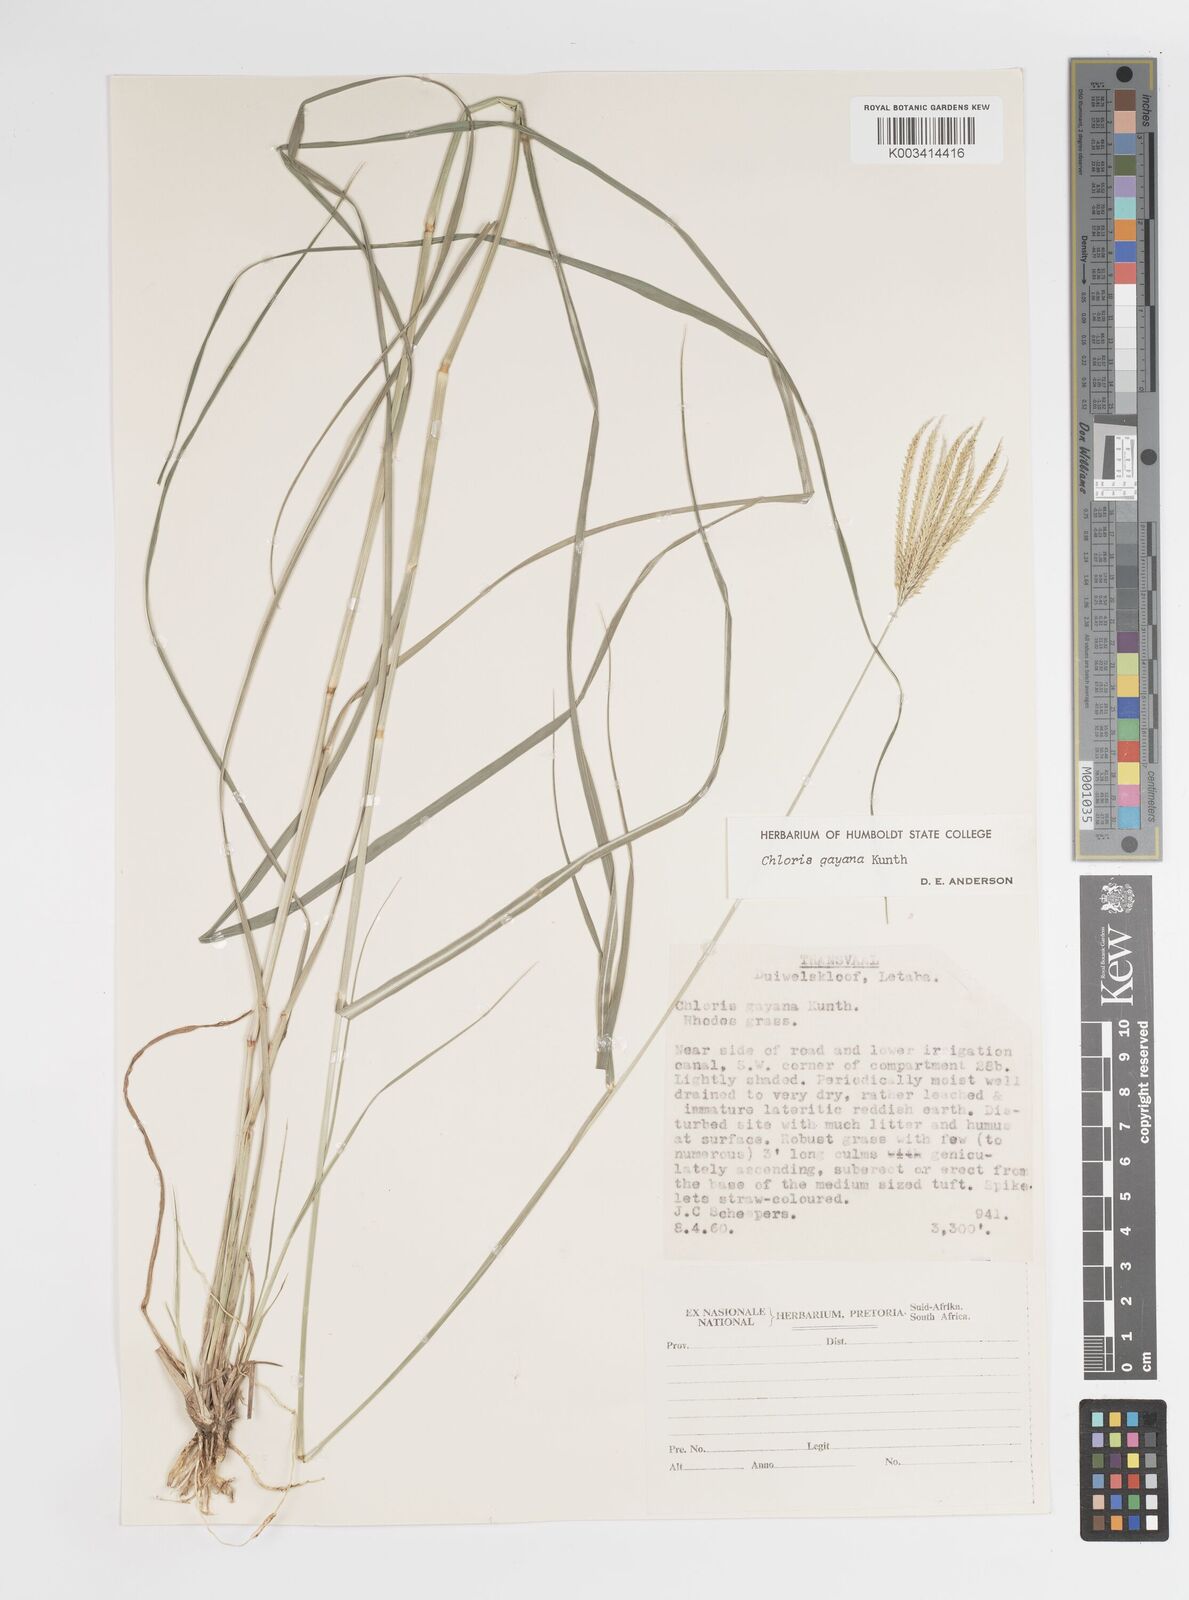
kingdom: Plantae
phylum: Tracheophyta
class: Liliopsida
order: Poales
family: Poaceae
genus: Chloris
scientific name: Chloris gayana
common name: Rhodes grass
